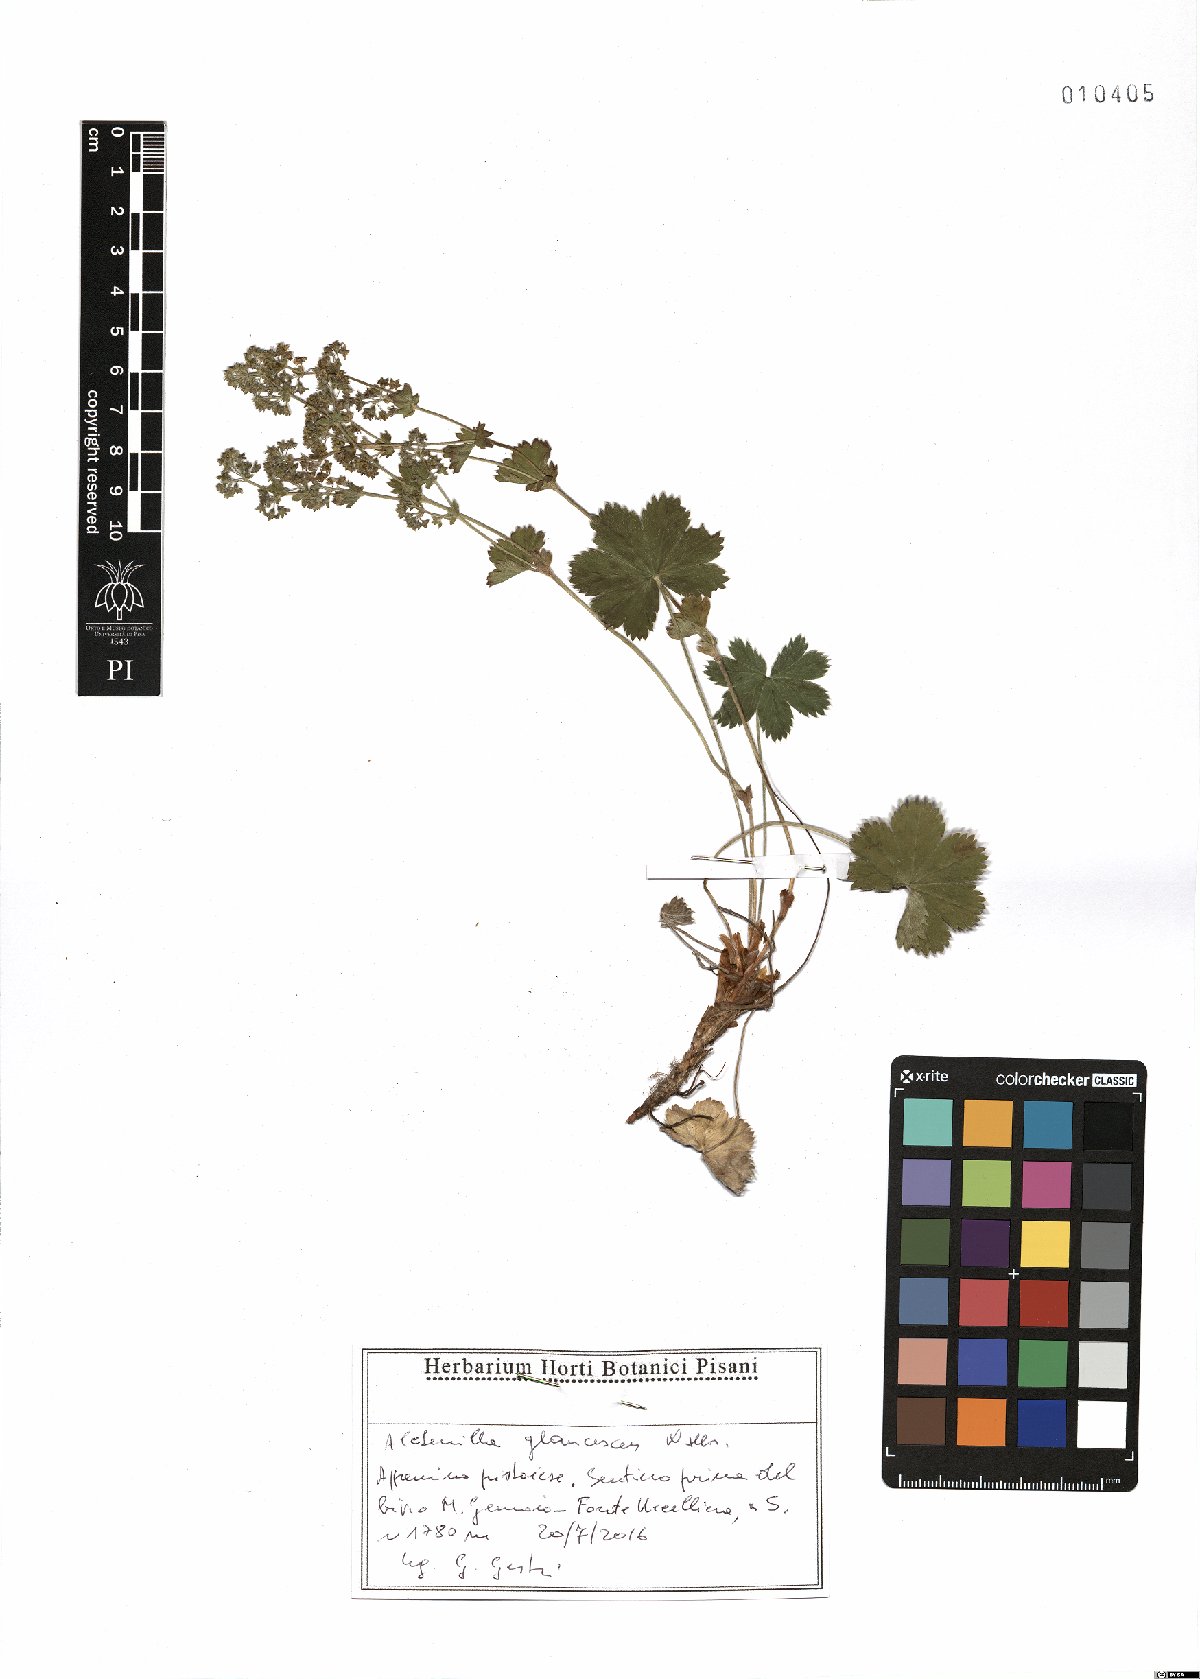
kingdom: Plantae
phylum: Tracheophyta
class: Magnoliopsida
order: Rosales
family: Rosaceae
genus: Alchemilla
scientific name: Alchemilla glaucescens
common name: Silky lady's mantle
